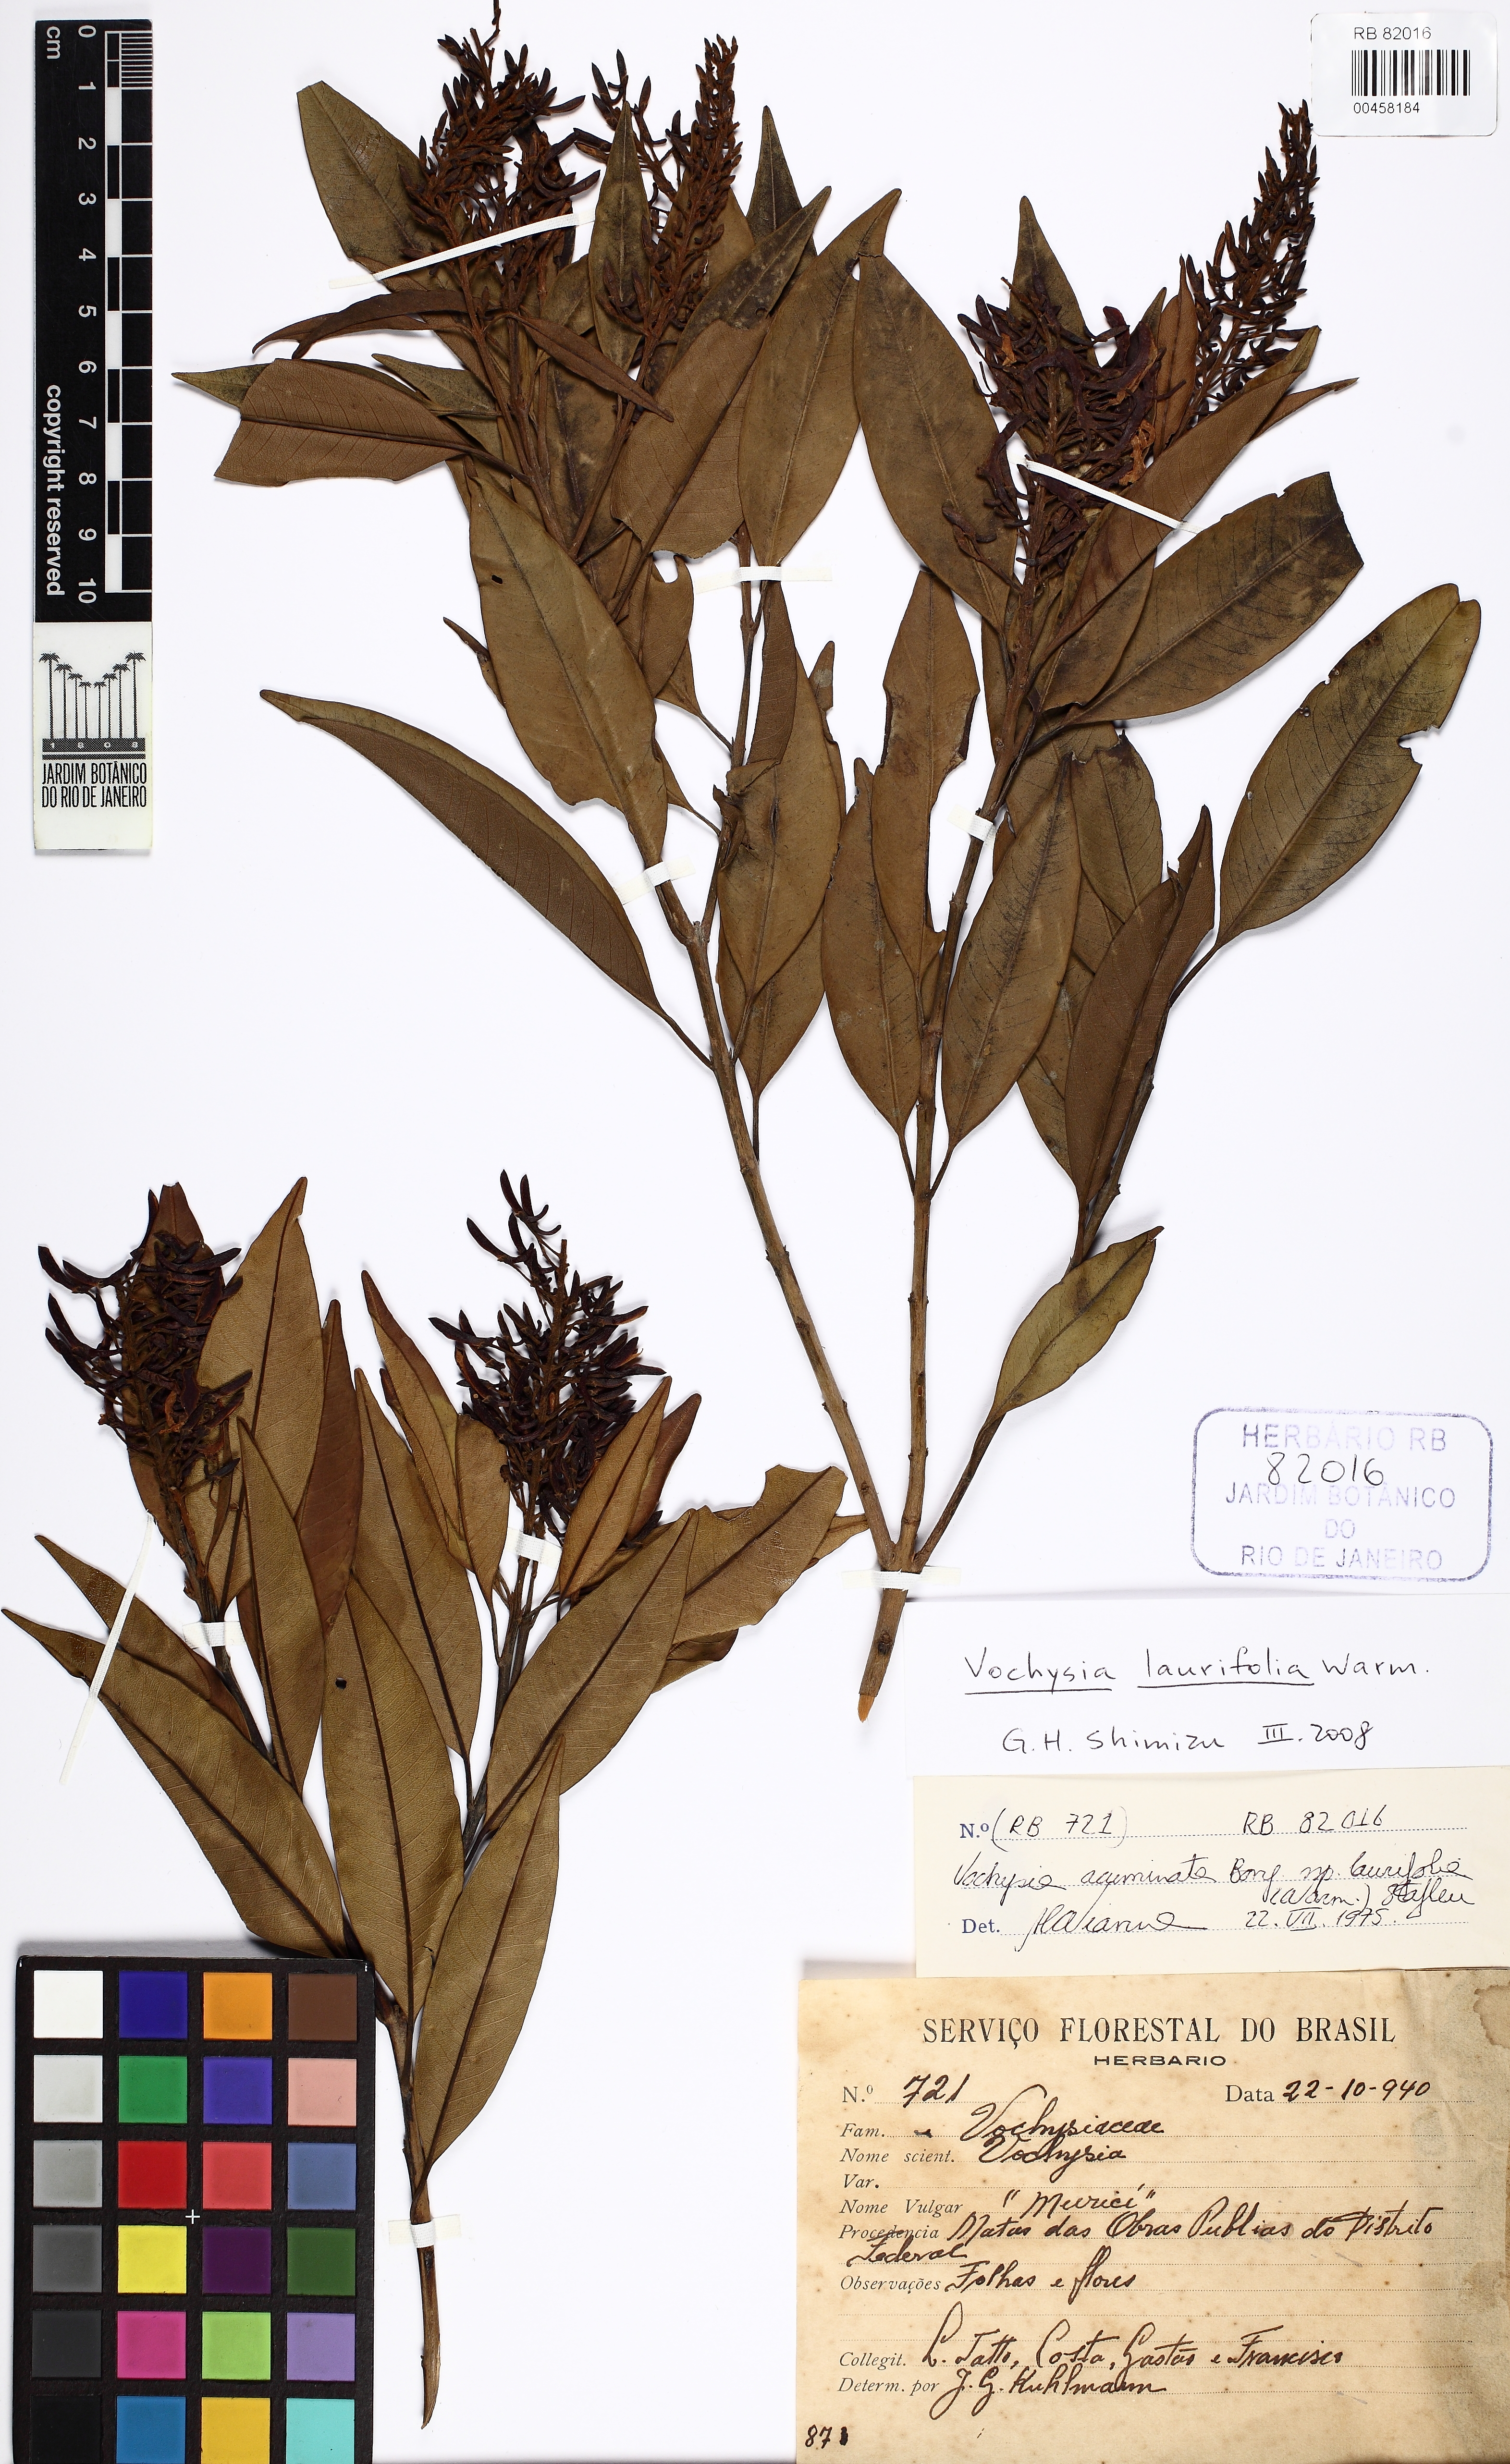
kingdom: Plantae
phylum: Tracheophyta
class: Magnoliopsida
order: Myrtales
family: Vochysiaceae
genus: Vochysia
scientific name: Vochysia laurifolia
